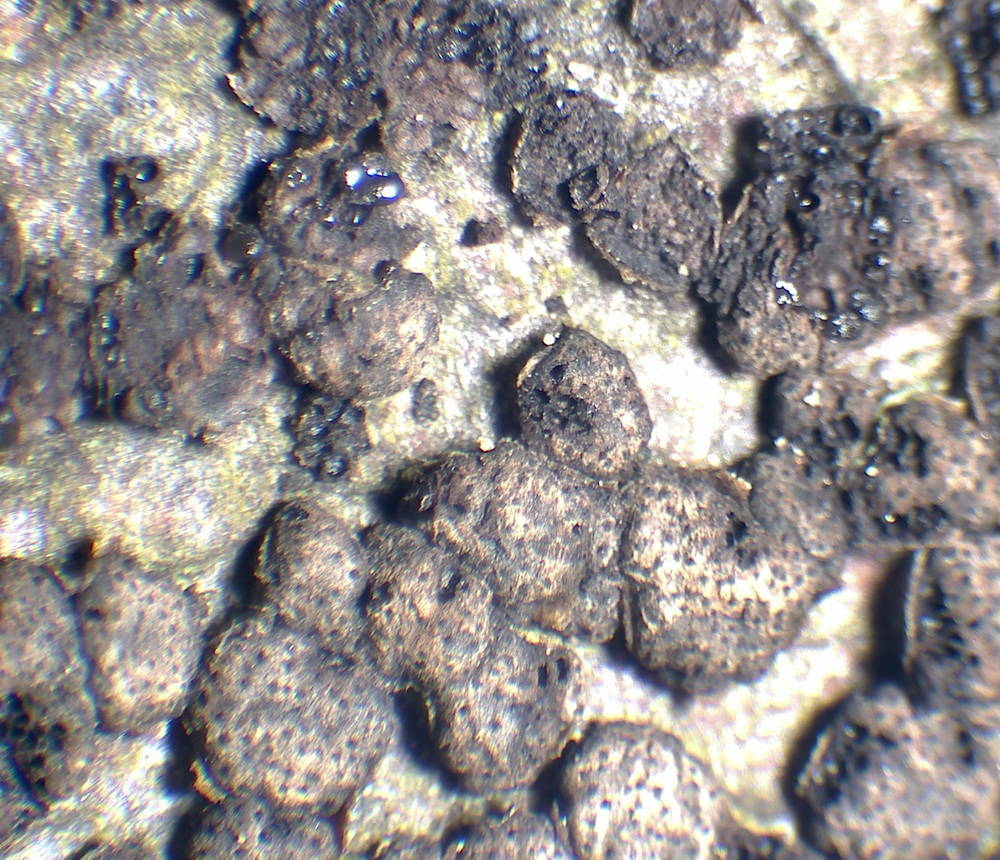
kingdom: Fungi
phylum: Ascomycota
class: Sordariomycetes
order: Xylariales
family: Melogrammataceae
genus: Melogramma
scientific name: Melogramma campylosporum
